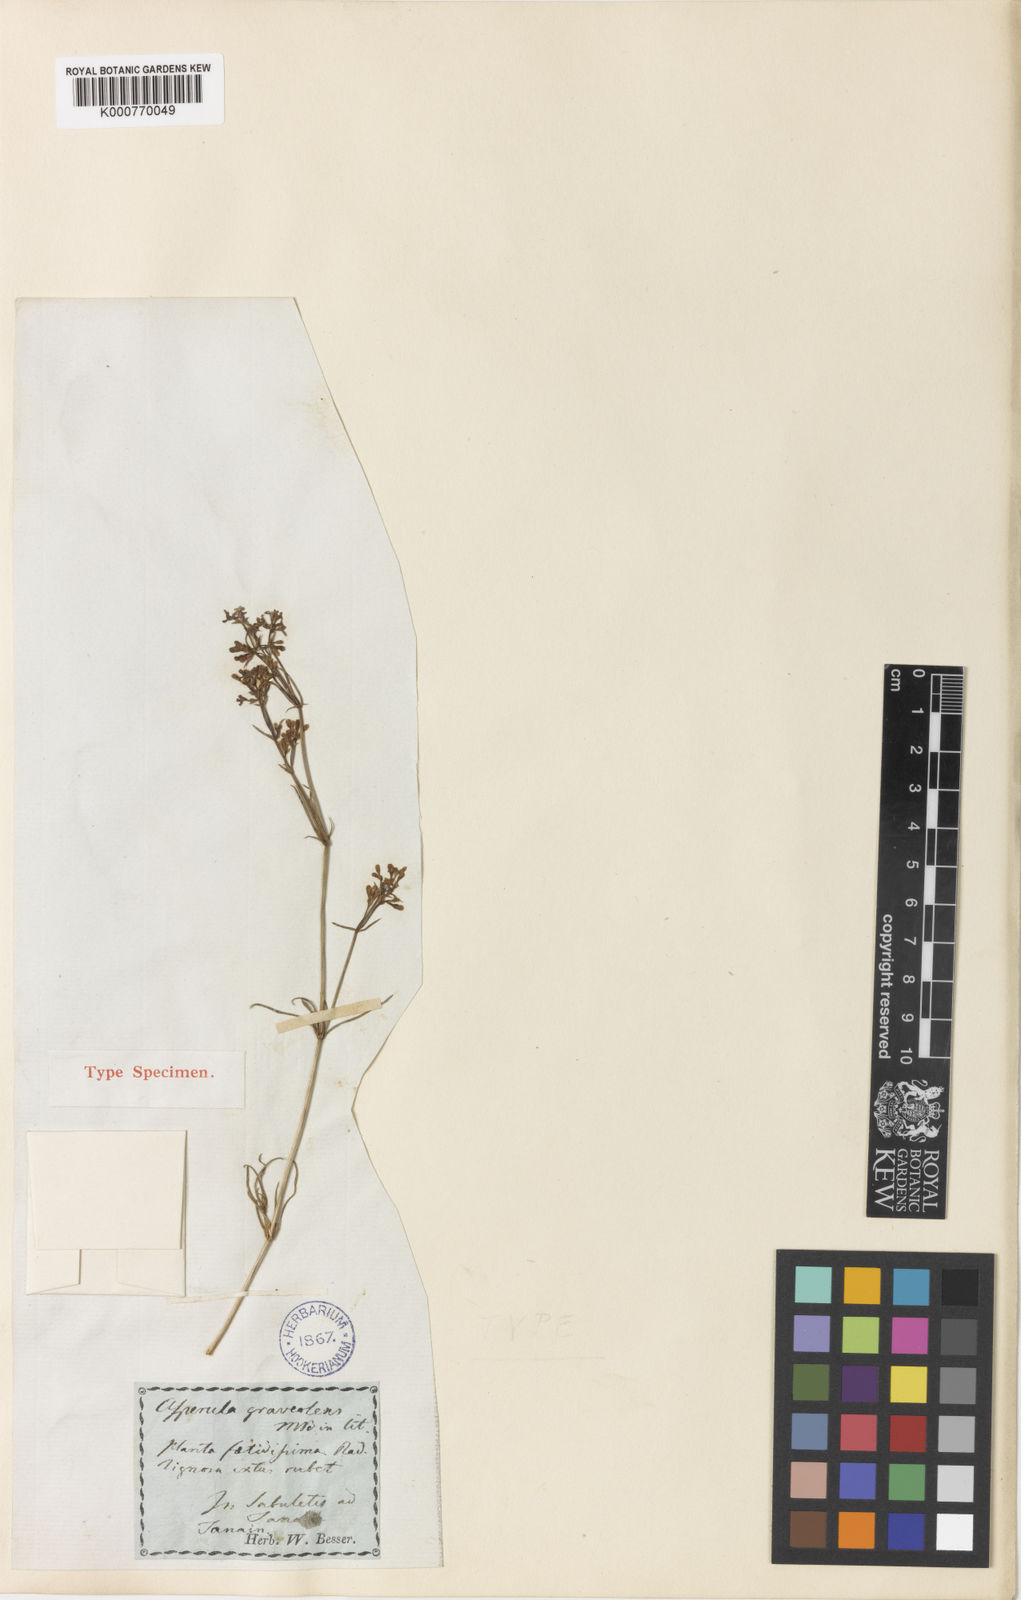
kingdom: Plantae
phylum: Tracheophyta
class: Magnoliopsida
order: Gentianales
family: Rubiaceae
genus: Asperula
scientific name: Asperula
